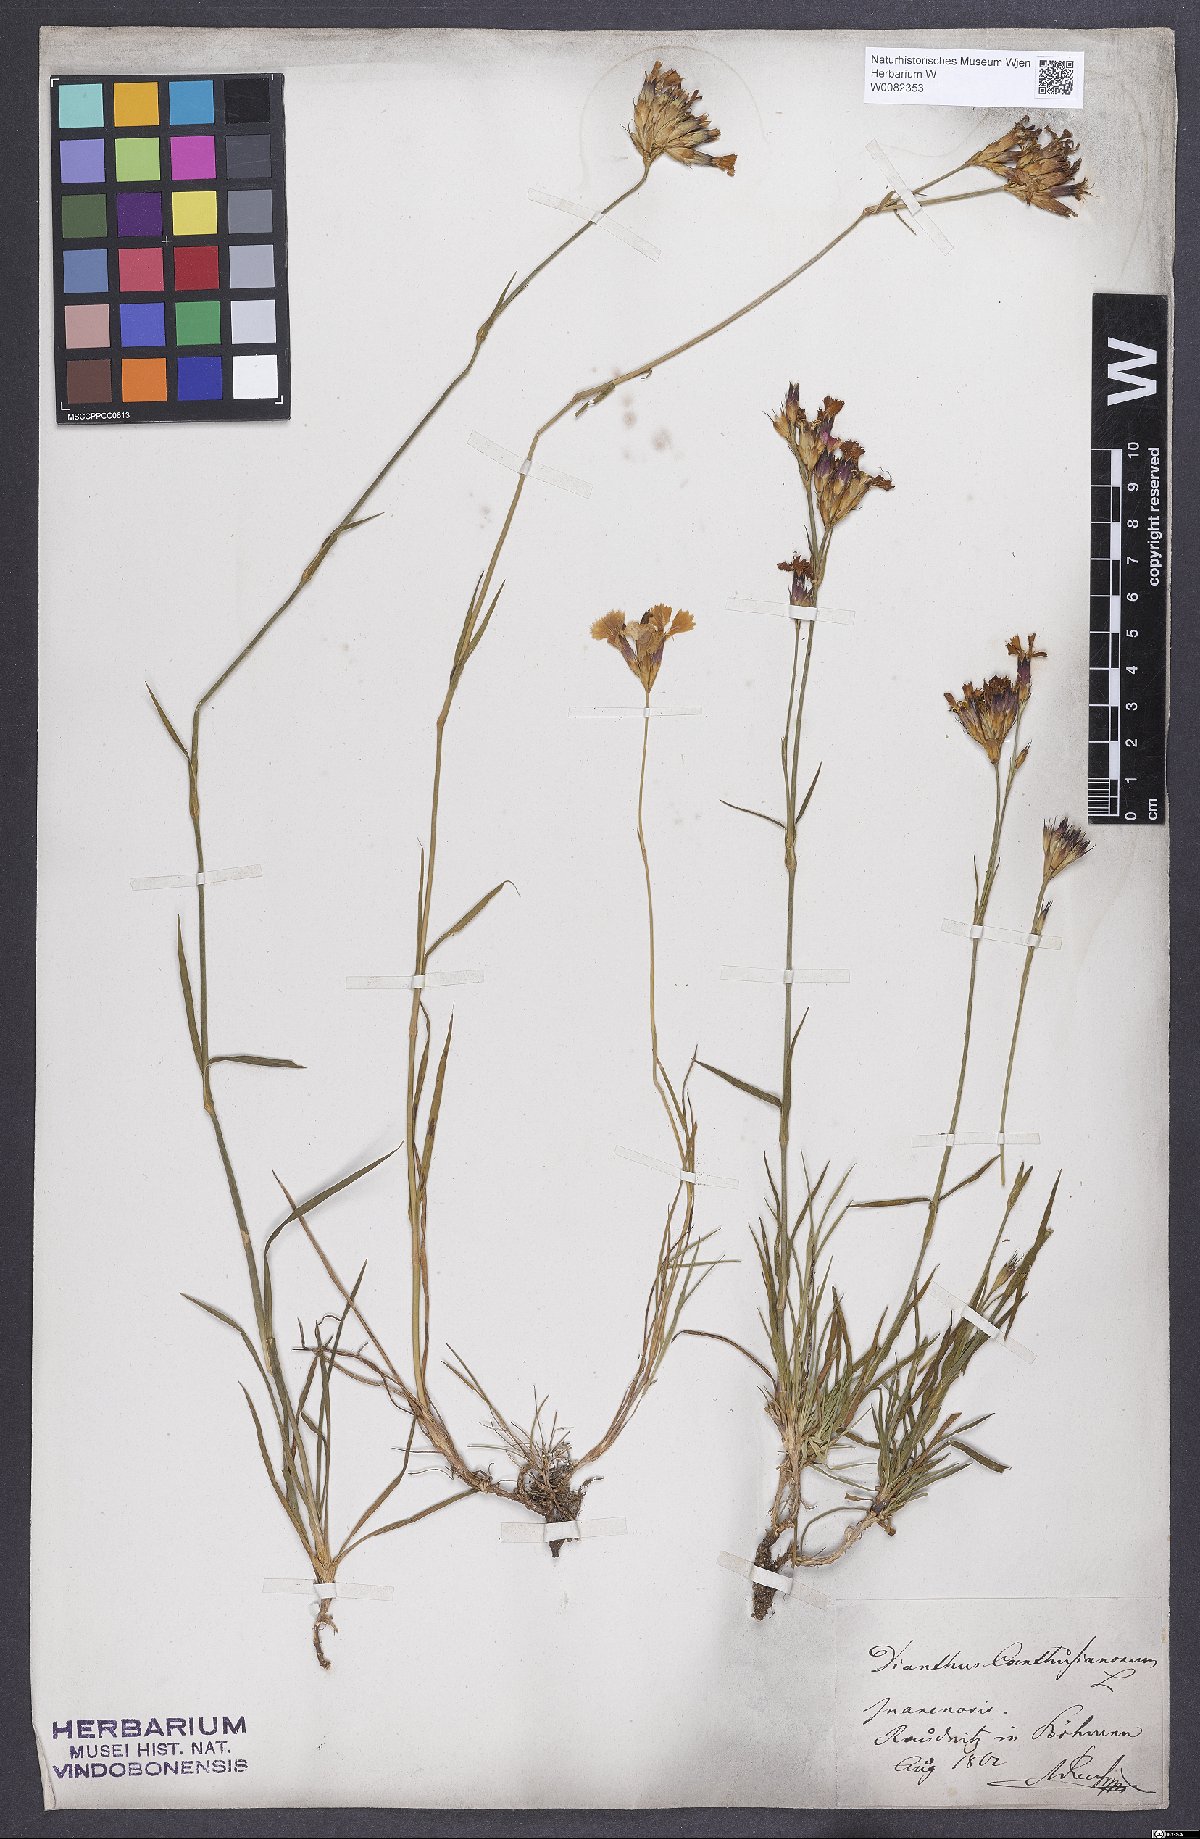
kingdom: Plantae
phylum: Tracheophyta
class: Magnoliopsida
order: Caryophyllales
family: Caryophyllaceae
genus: Dianthus
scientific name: Dianthus carthusianorum
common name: Carthusian pink
